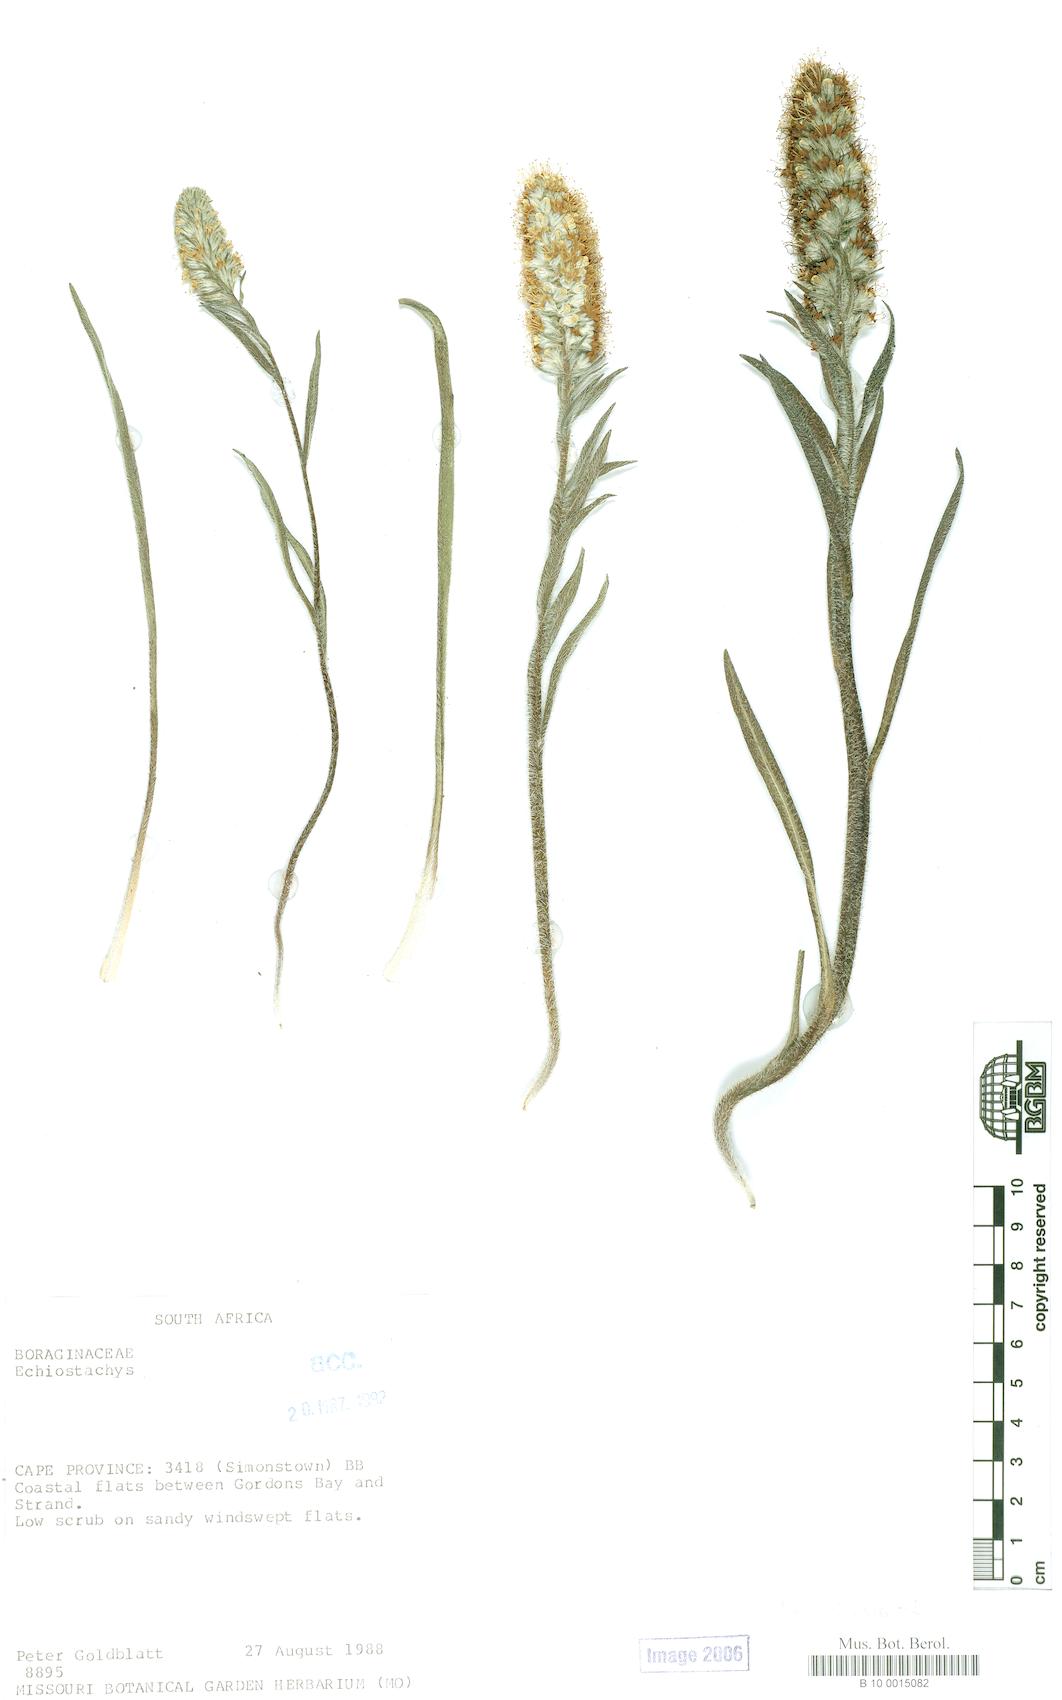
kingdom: Plantae
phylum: Tracheophyta
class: Magnoliopsida
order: Boraginales
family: Boraginaceae
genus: Lobostemon
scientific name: Lobostemon
